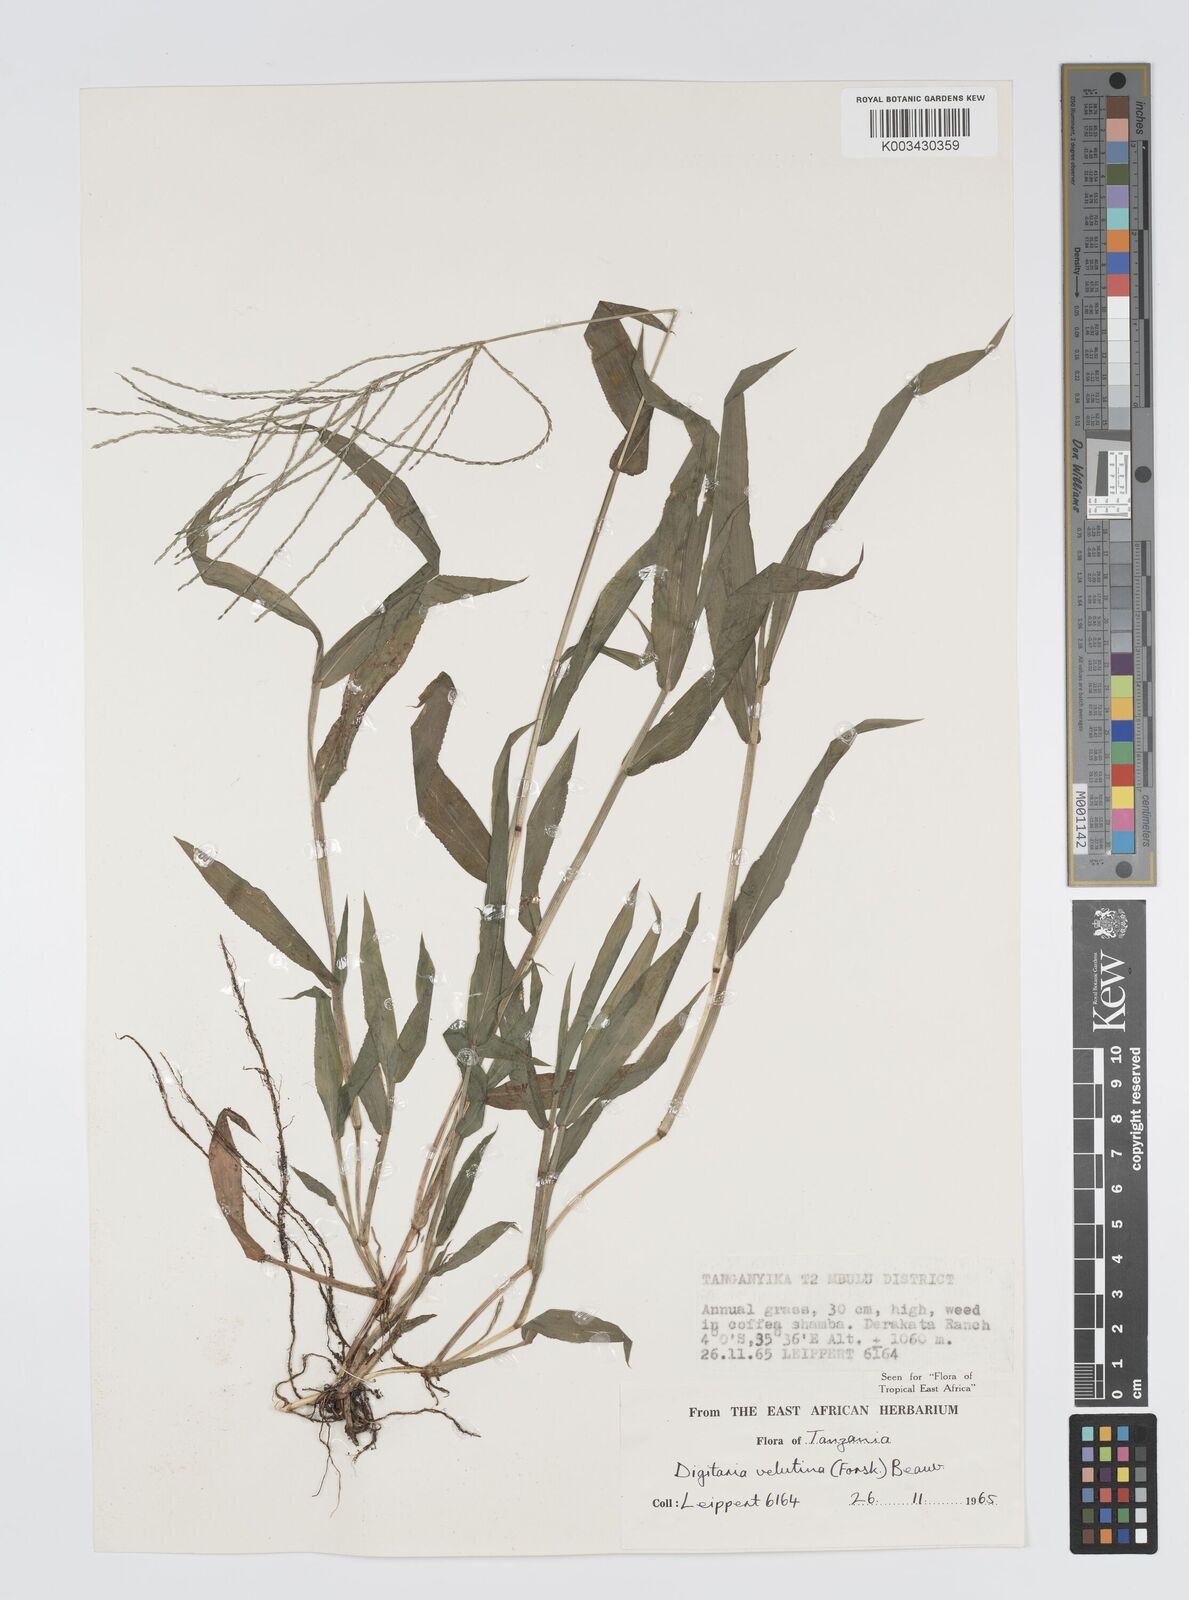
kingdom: Plantae
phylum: Tracheophyta
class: Liliopsida
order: Poales
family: Poaceae
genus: Digitaria
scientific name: Digitaria velutina
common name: Long-plume finger grass
